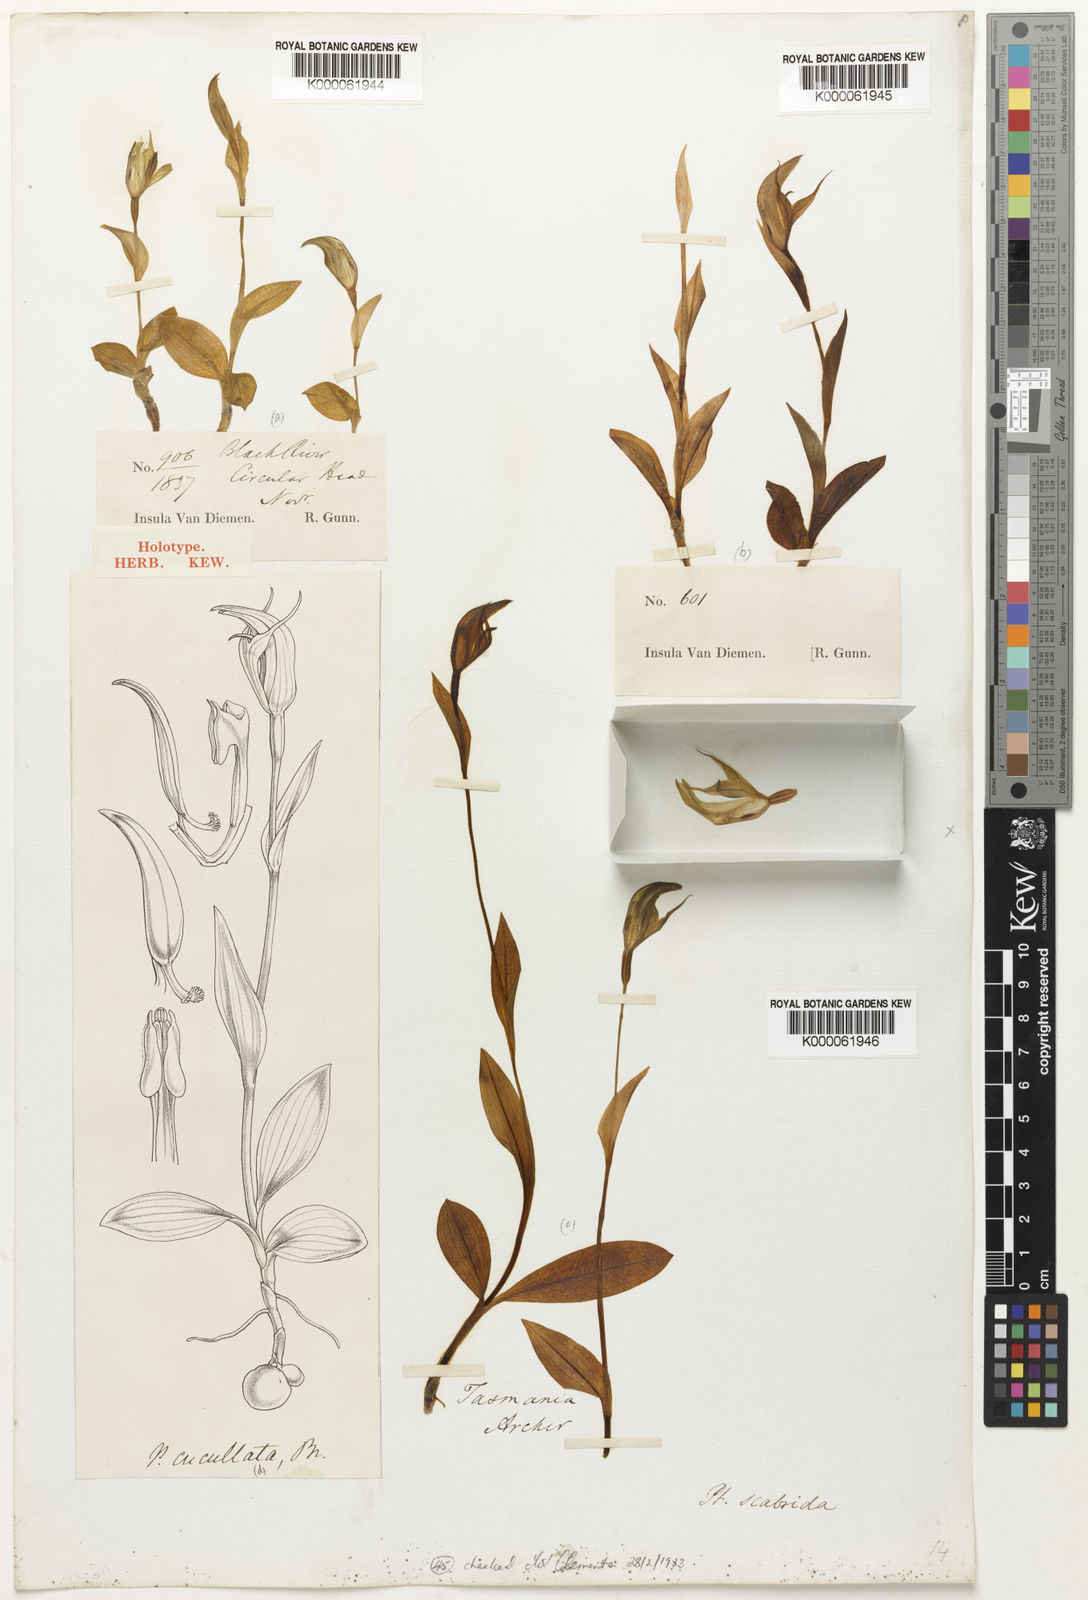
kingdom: Plantae
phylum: Tracheophyta
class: Liliopsida
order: Asparagales
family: Orchidaceae
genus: Pterostylis
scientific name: Pterostylis scabrida
